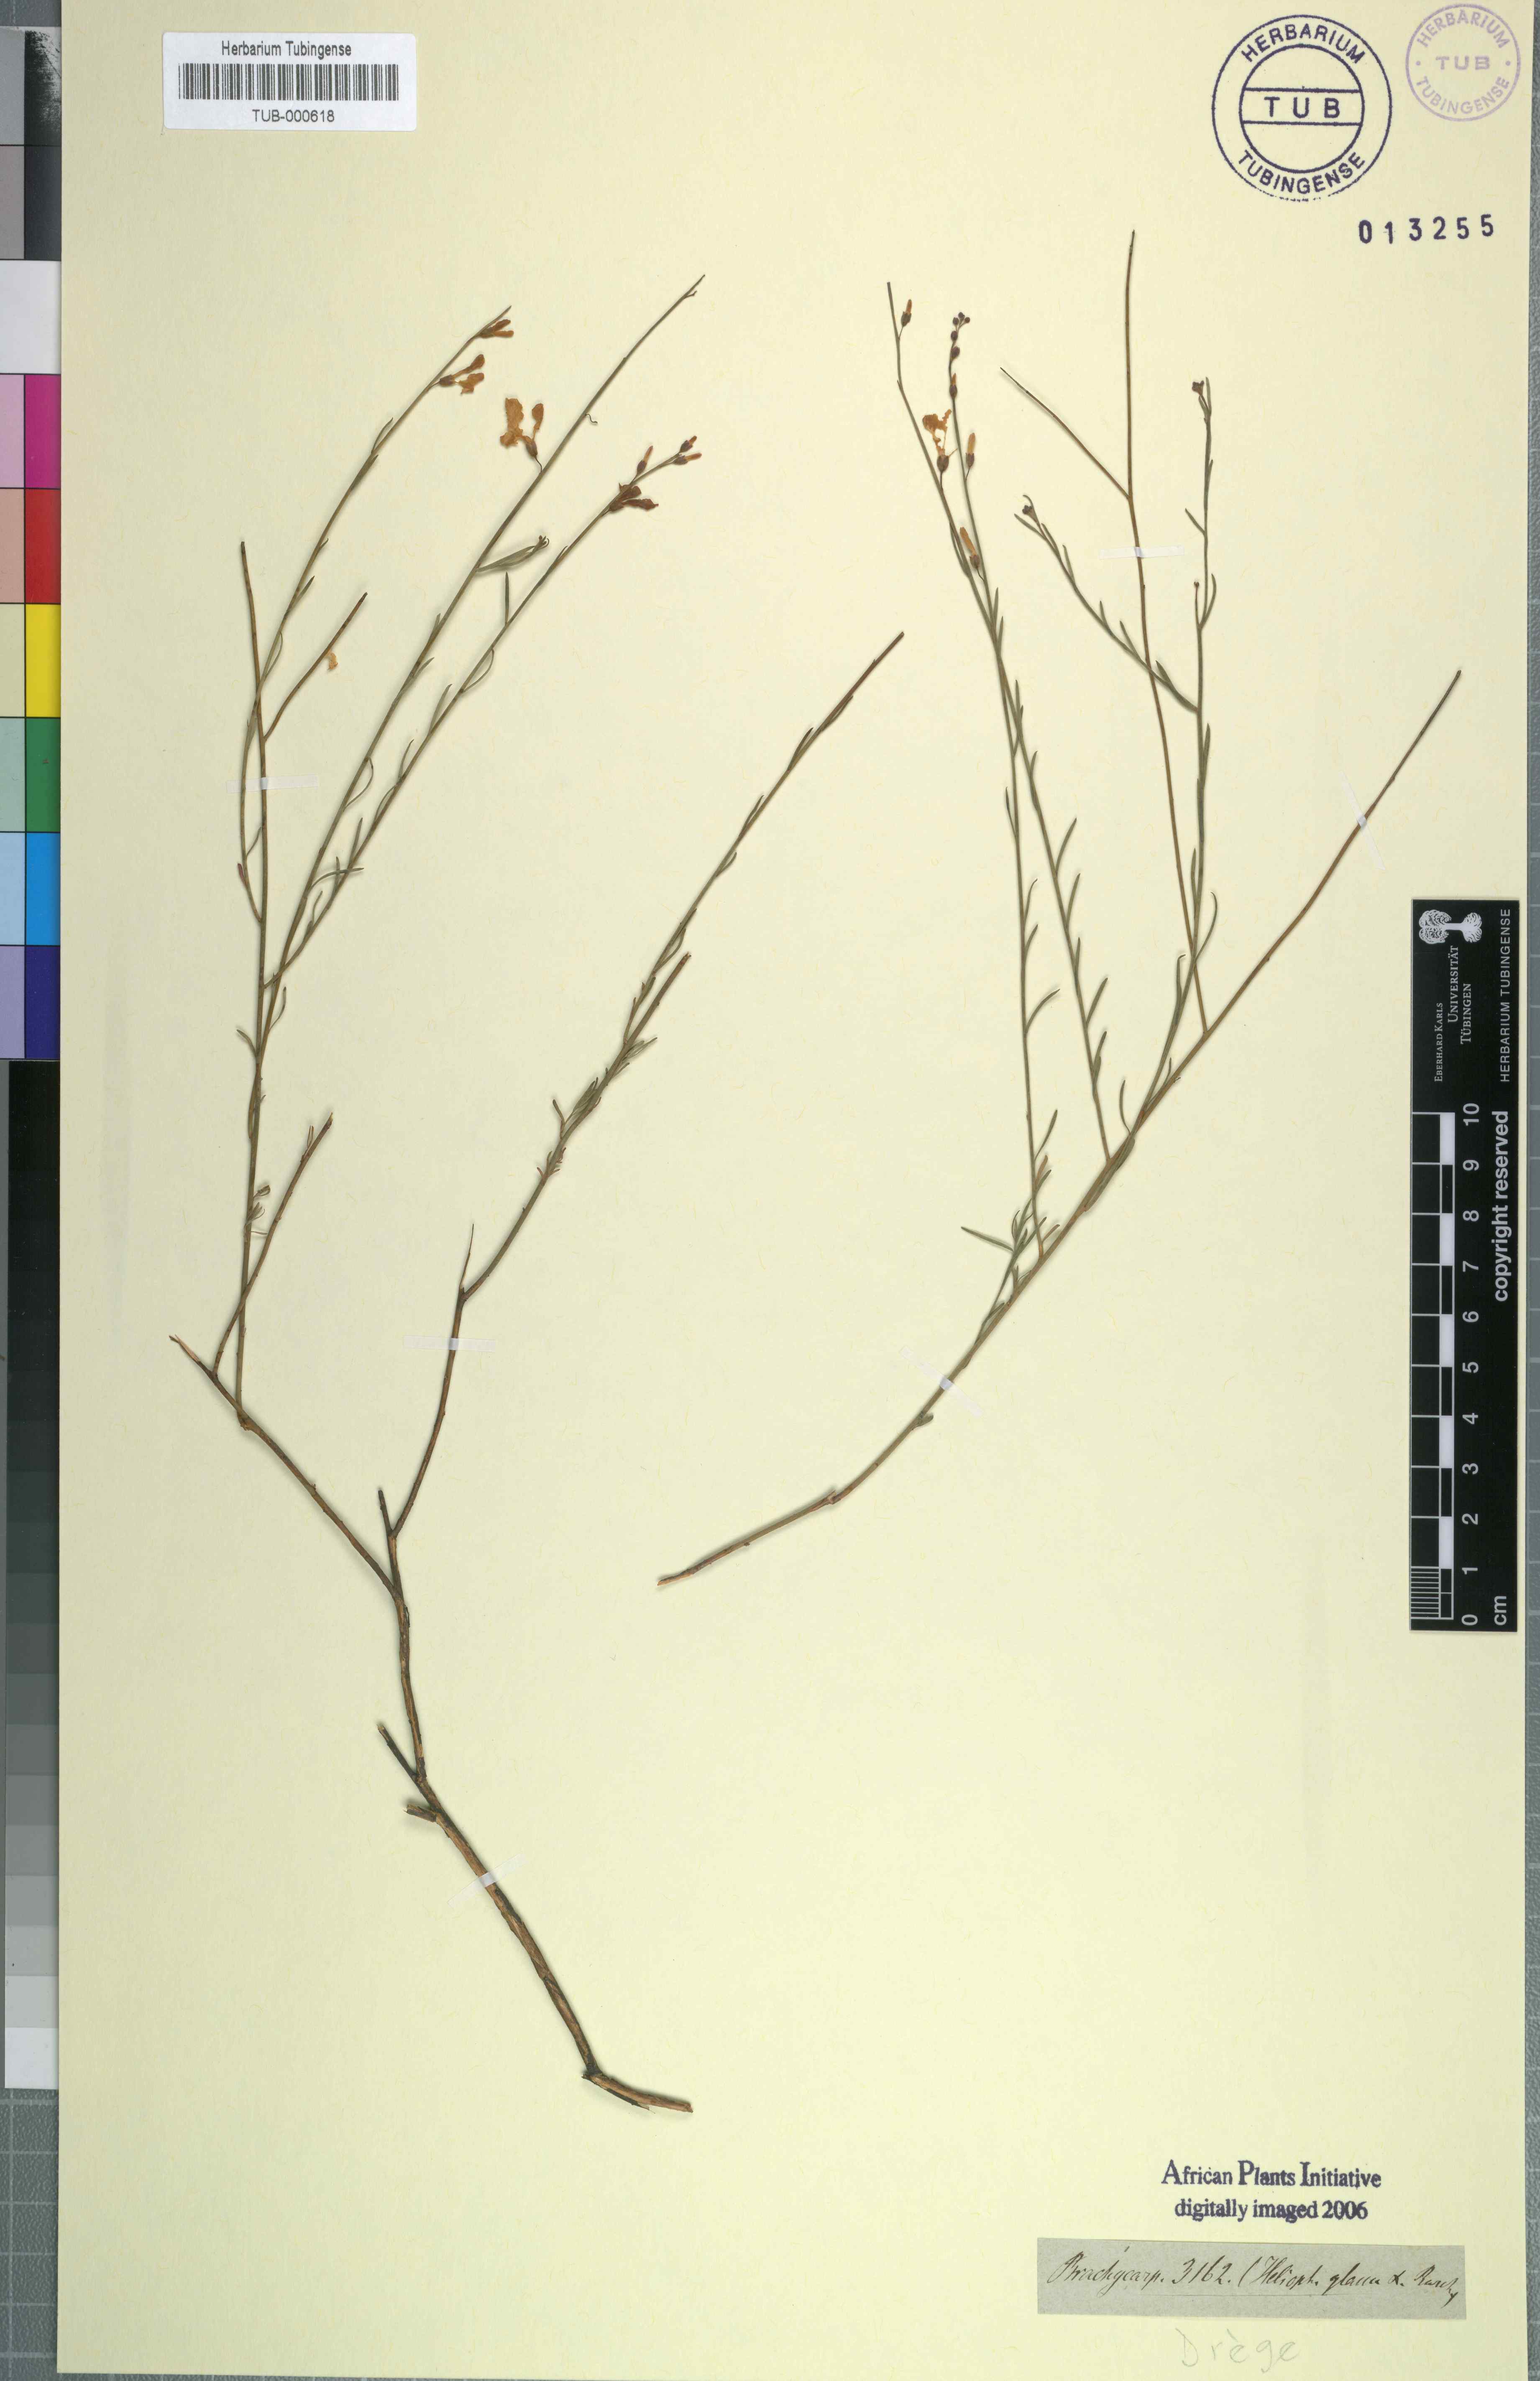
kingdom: Plantae
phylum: Tracheophyta
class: Magnoliopsida
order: Brassicales
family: Brassicaceae
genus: Heliophila
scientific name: Heliophila
